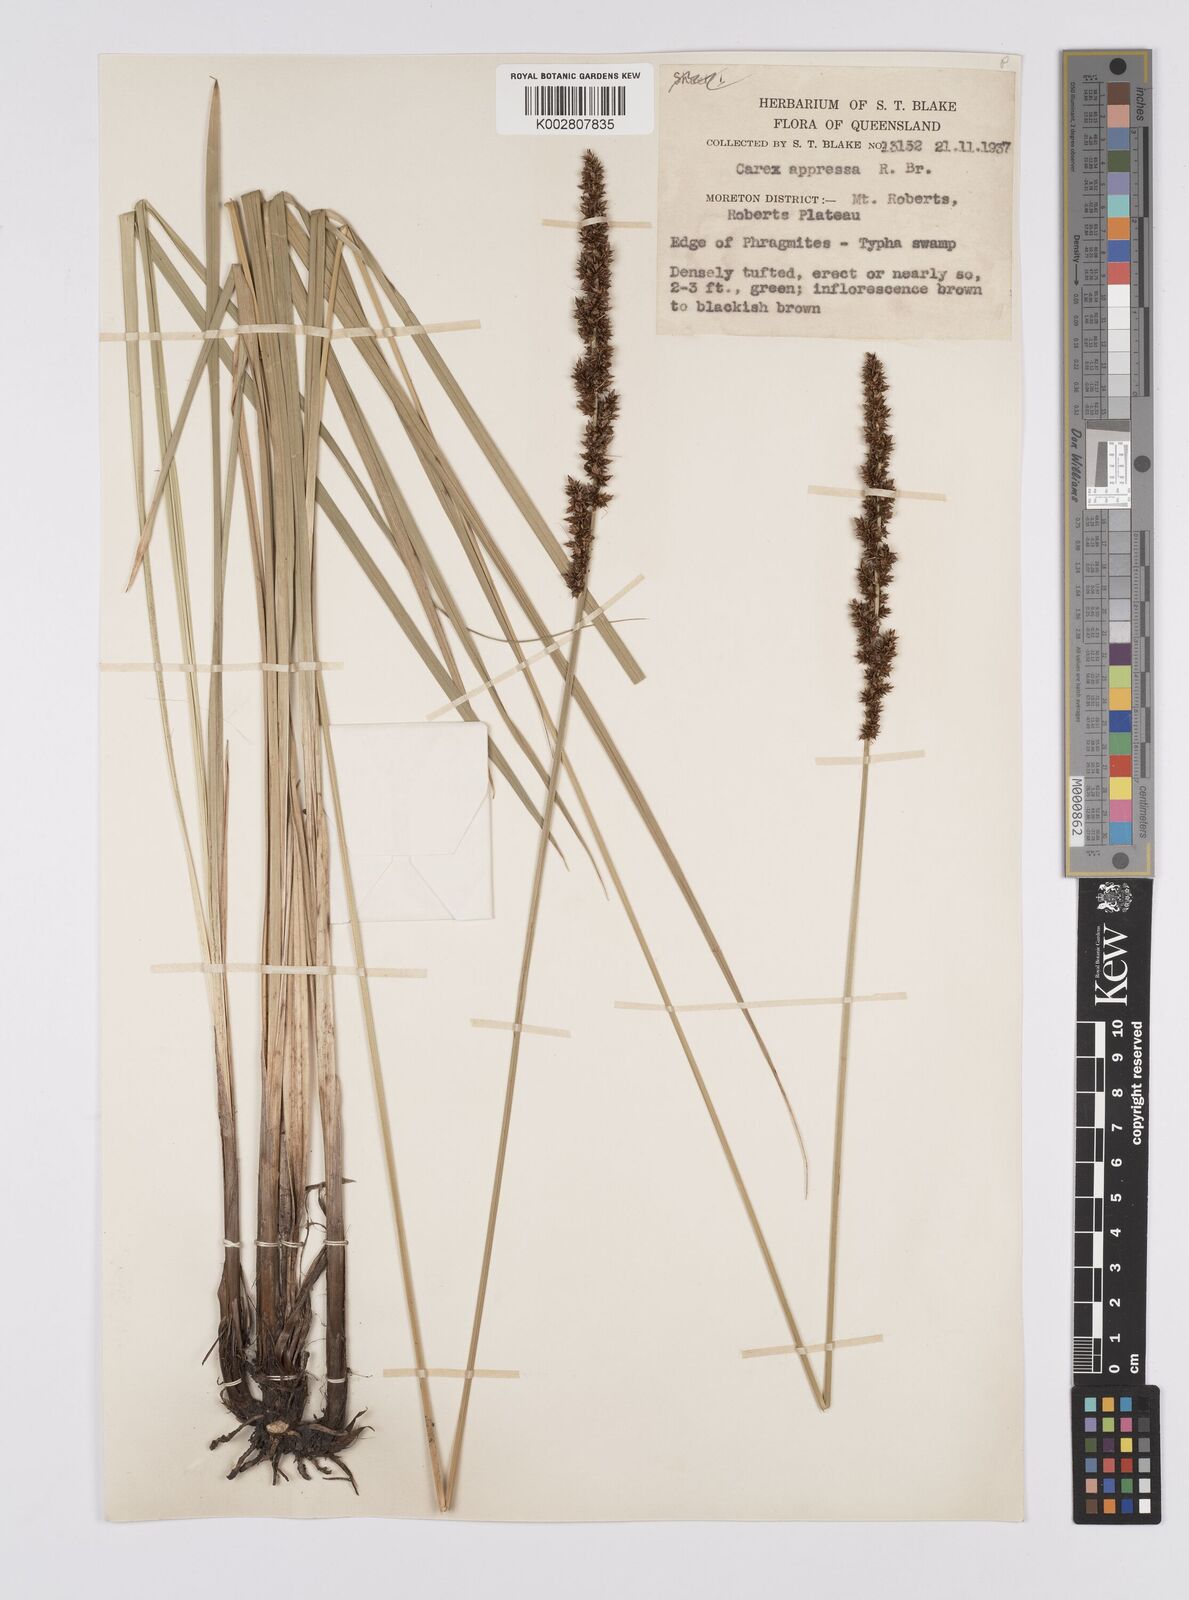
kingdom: Plantae
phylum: Tracheophyta
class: Liliopsida
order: Poales
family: Cyperaceae
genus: Carex
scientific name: Carex appressa
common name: Tussock sedge
